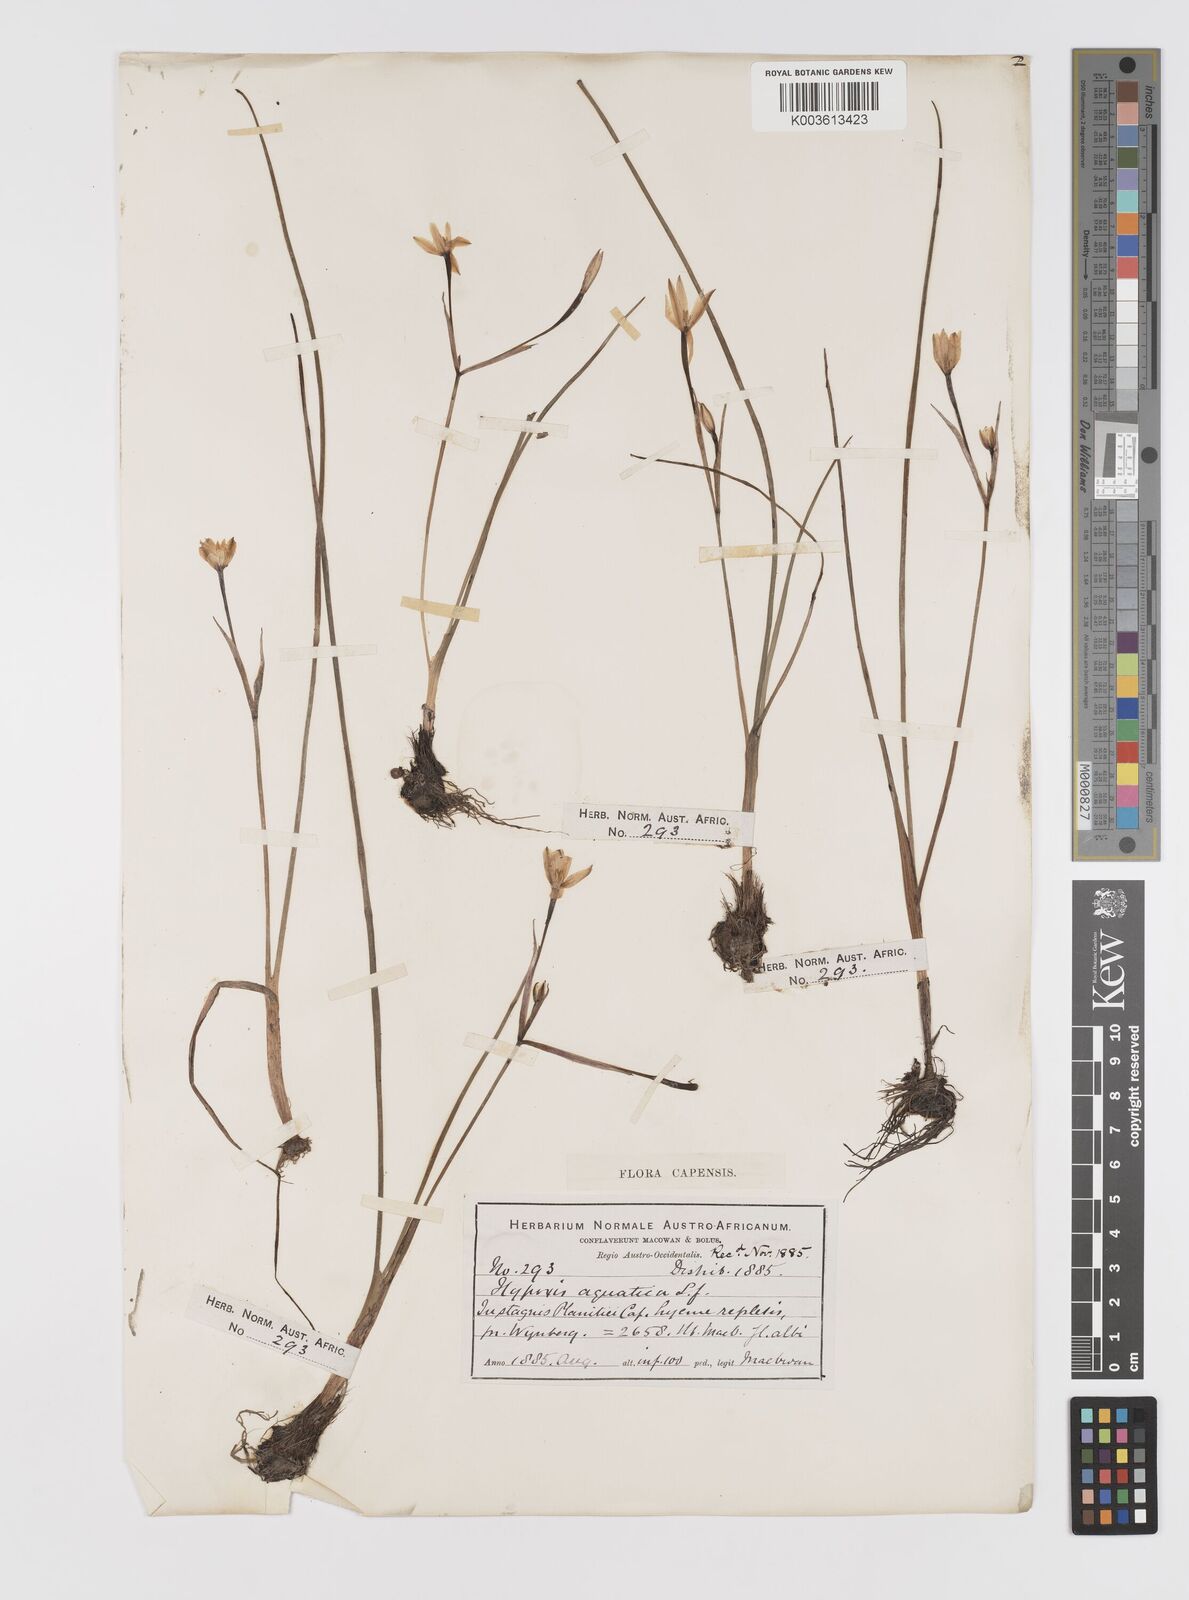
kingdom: Plantae
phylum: Tracheophyta
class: Liliopsida
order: Asparagales
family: Hypoxidaceae
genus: Pauridia
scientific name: Pauridia aquatica
